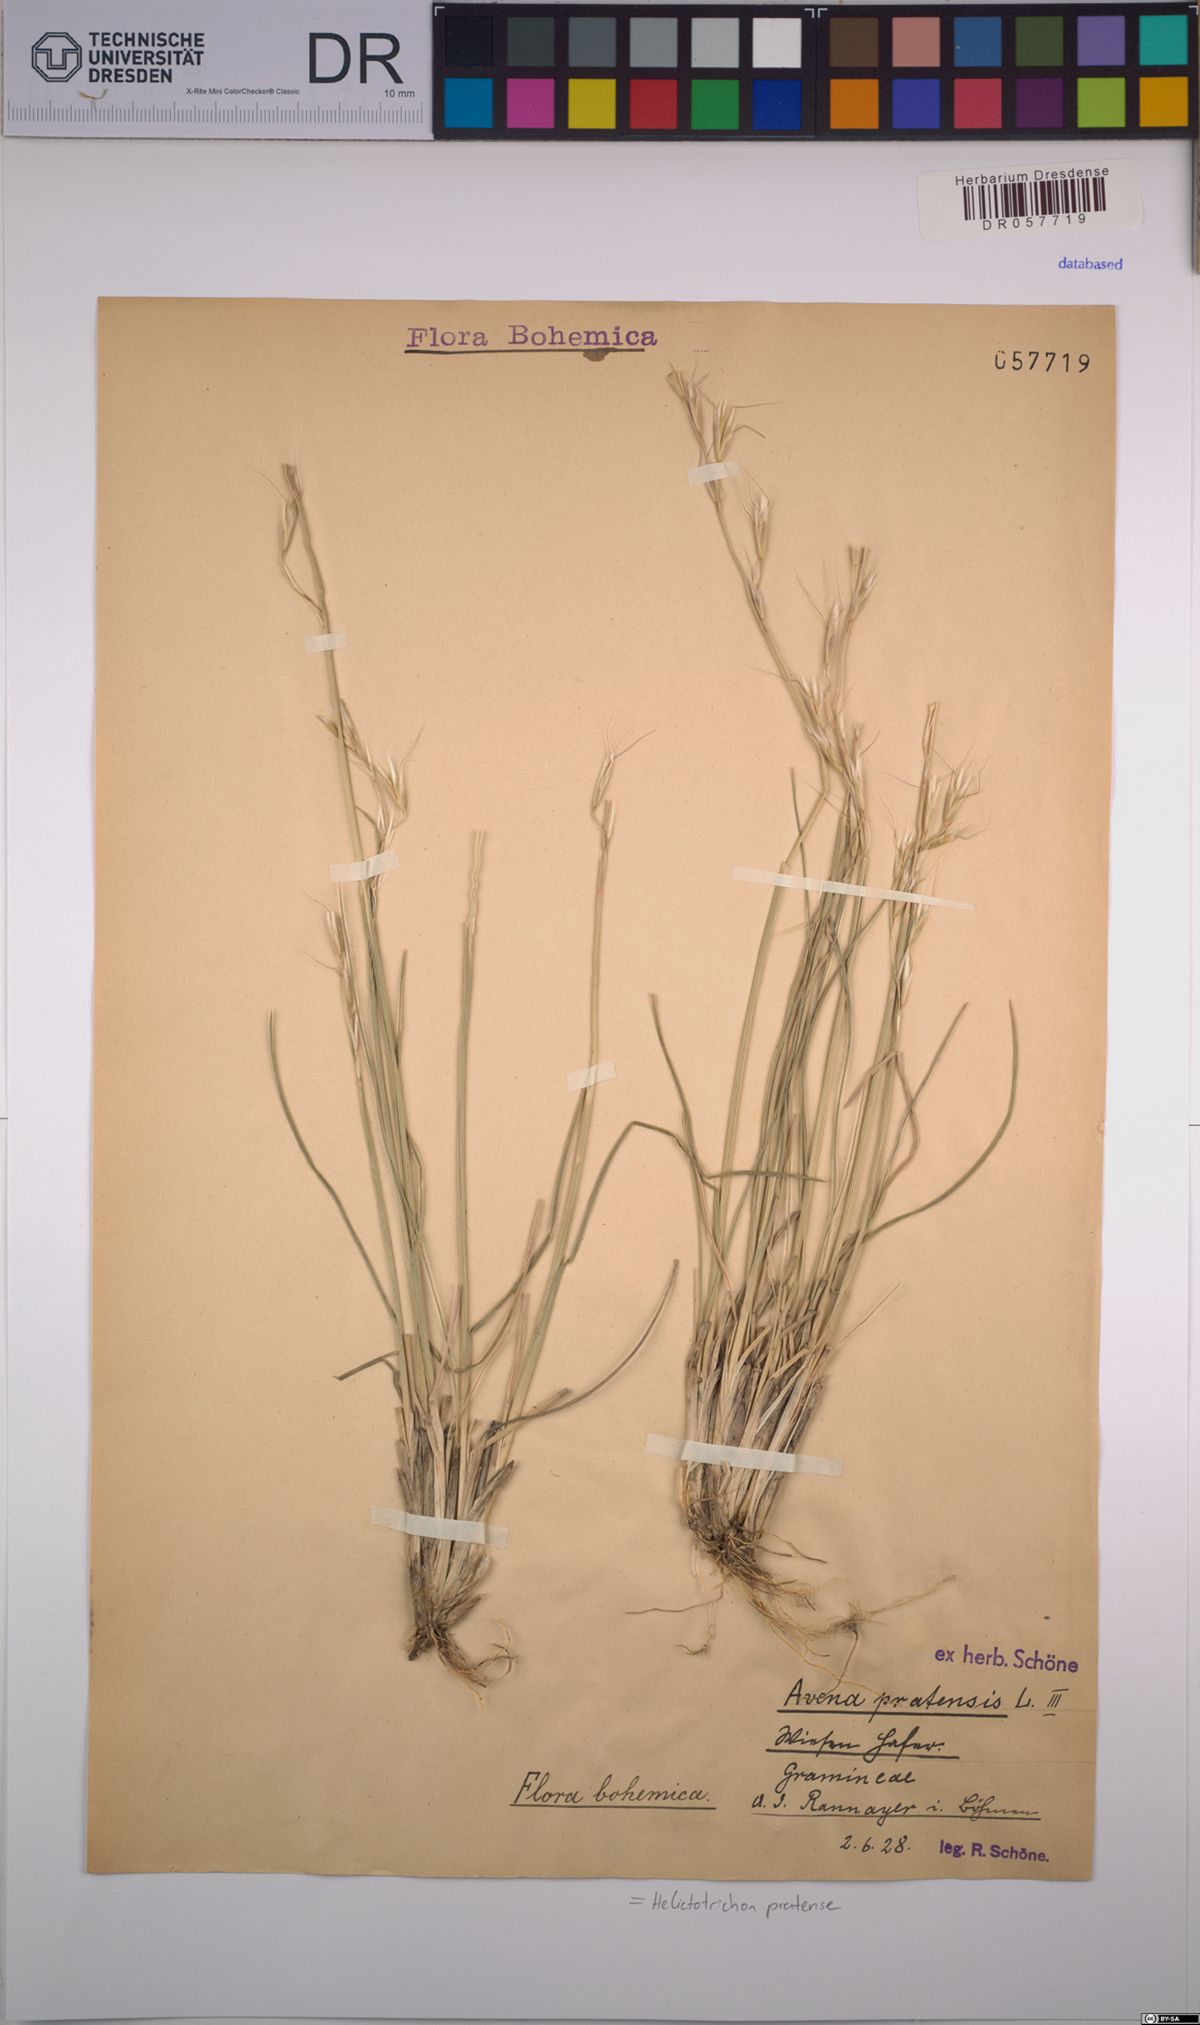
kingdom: Plantae
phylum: Tracheophyta
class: Liliopsida
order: Poales
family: Poaceae
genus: Helictochloa
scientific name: Helictochloa pratensis
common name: Meadow oat grass
